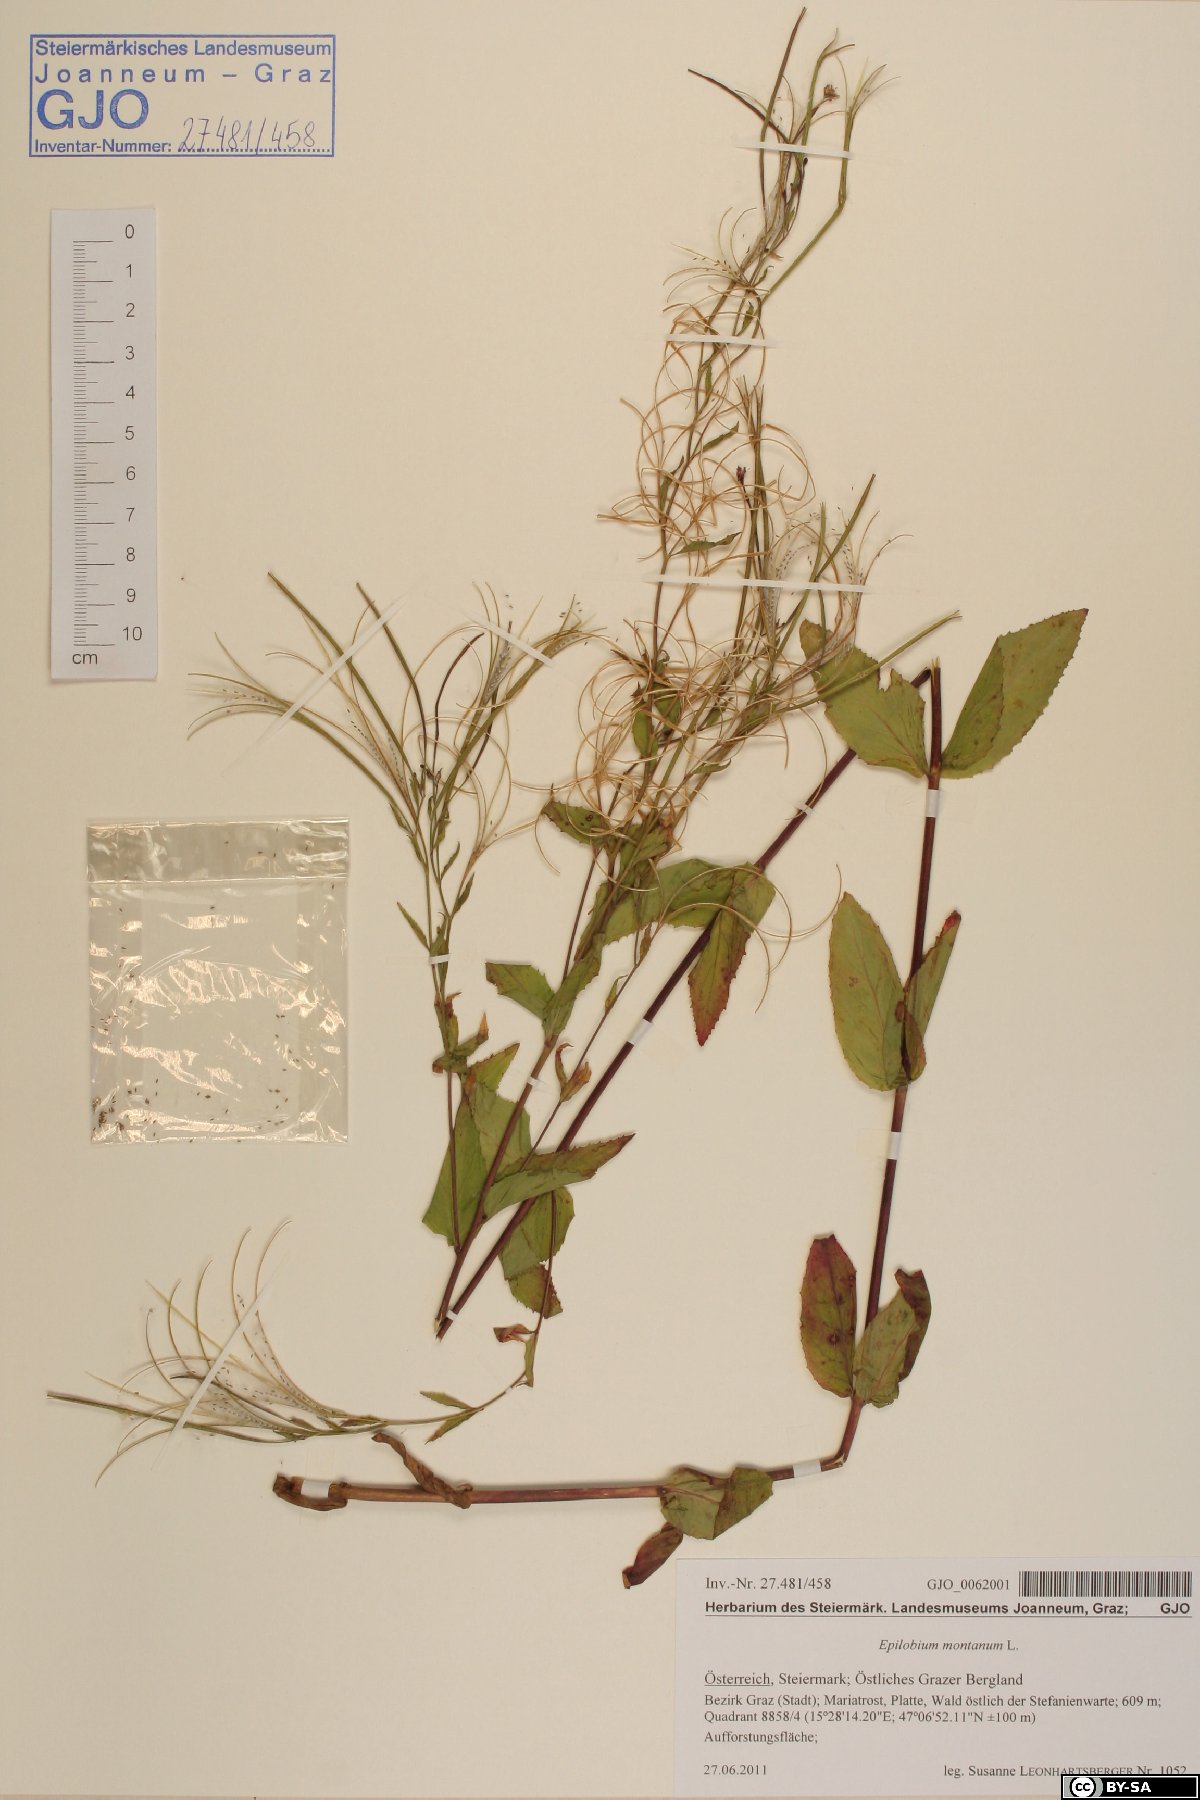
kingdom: Plantae
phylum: Tracheophyta
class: Magnoliopsida
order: Myrtales
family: Onagraceae
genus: Epilobium
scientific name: Epilobium montanum
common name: Broad-leaved willowherb
